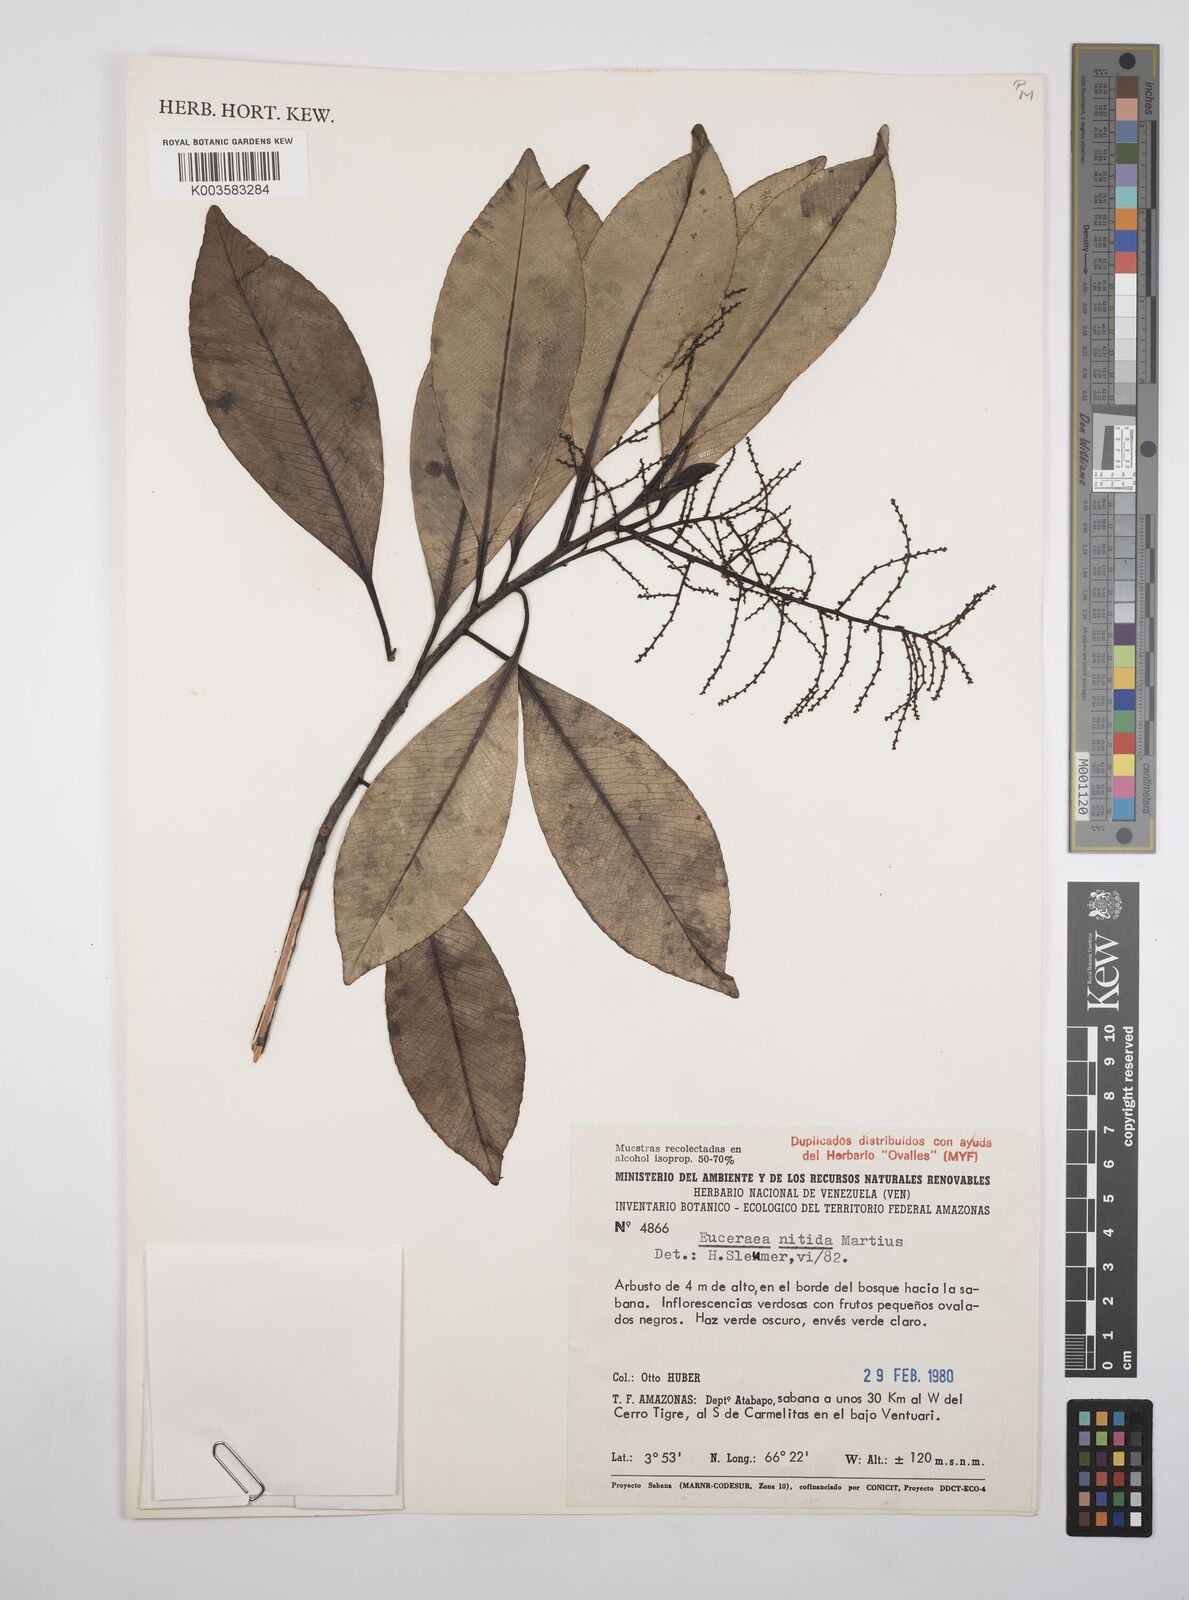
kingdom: Plantae
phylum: Tracheophyta
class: Magnoliopsida
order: Malpighiales
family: Salicaceae
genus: Casearia
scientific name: Casearia euceraea
